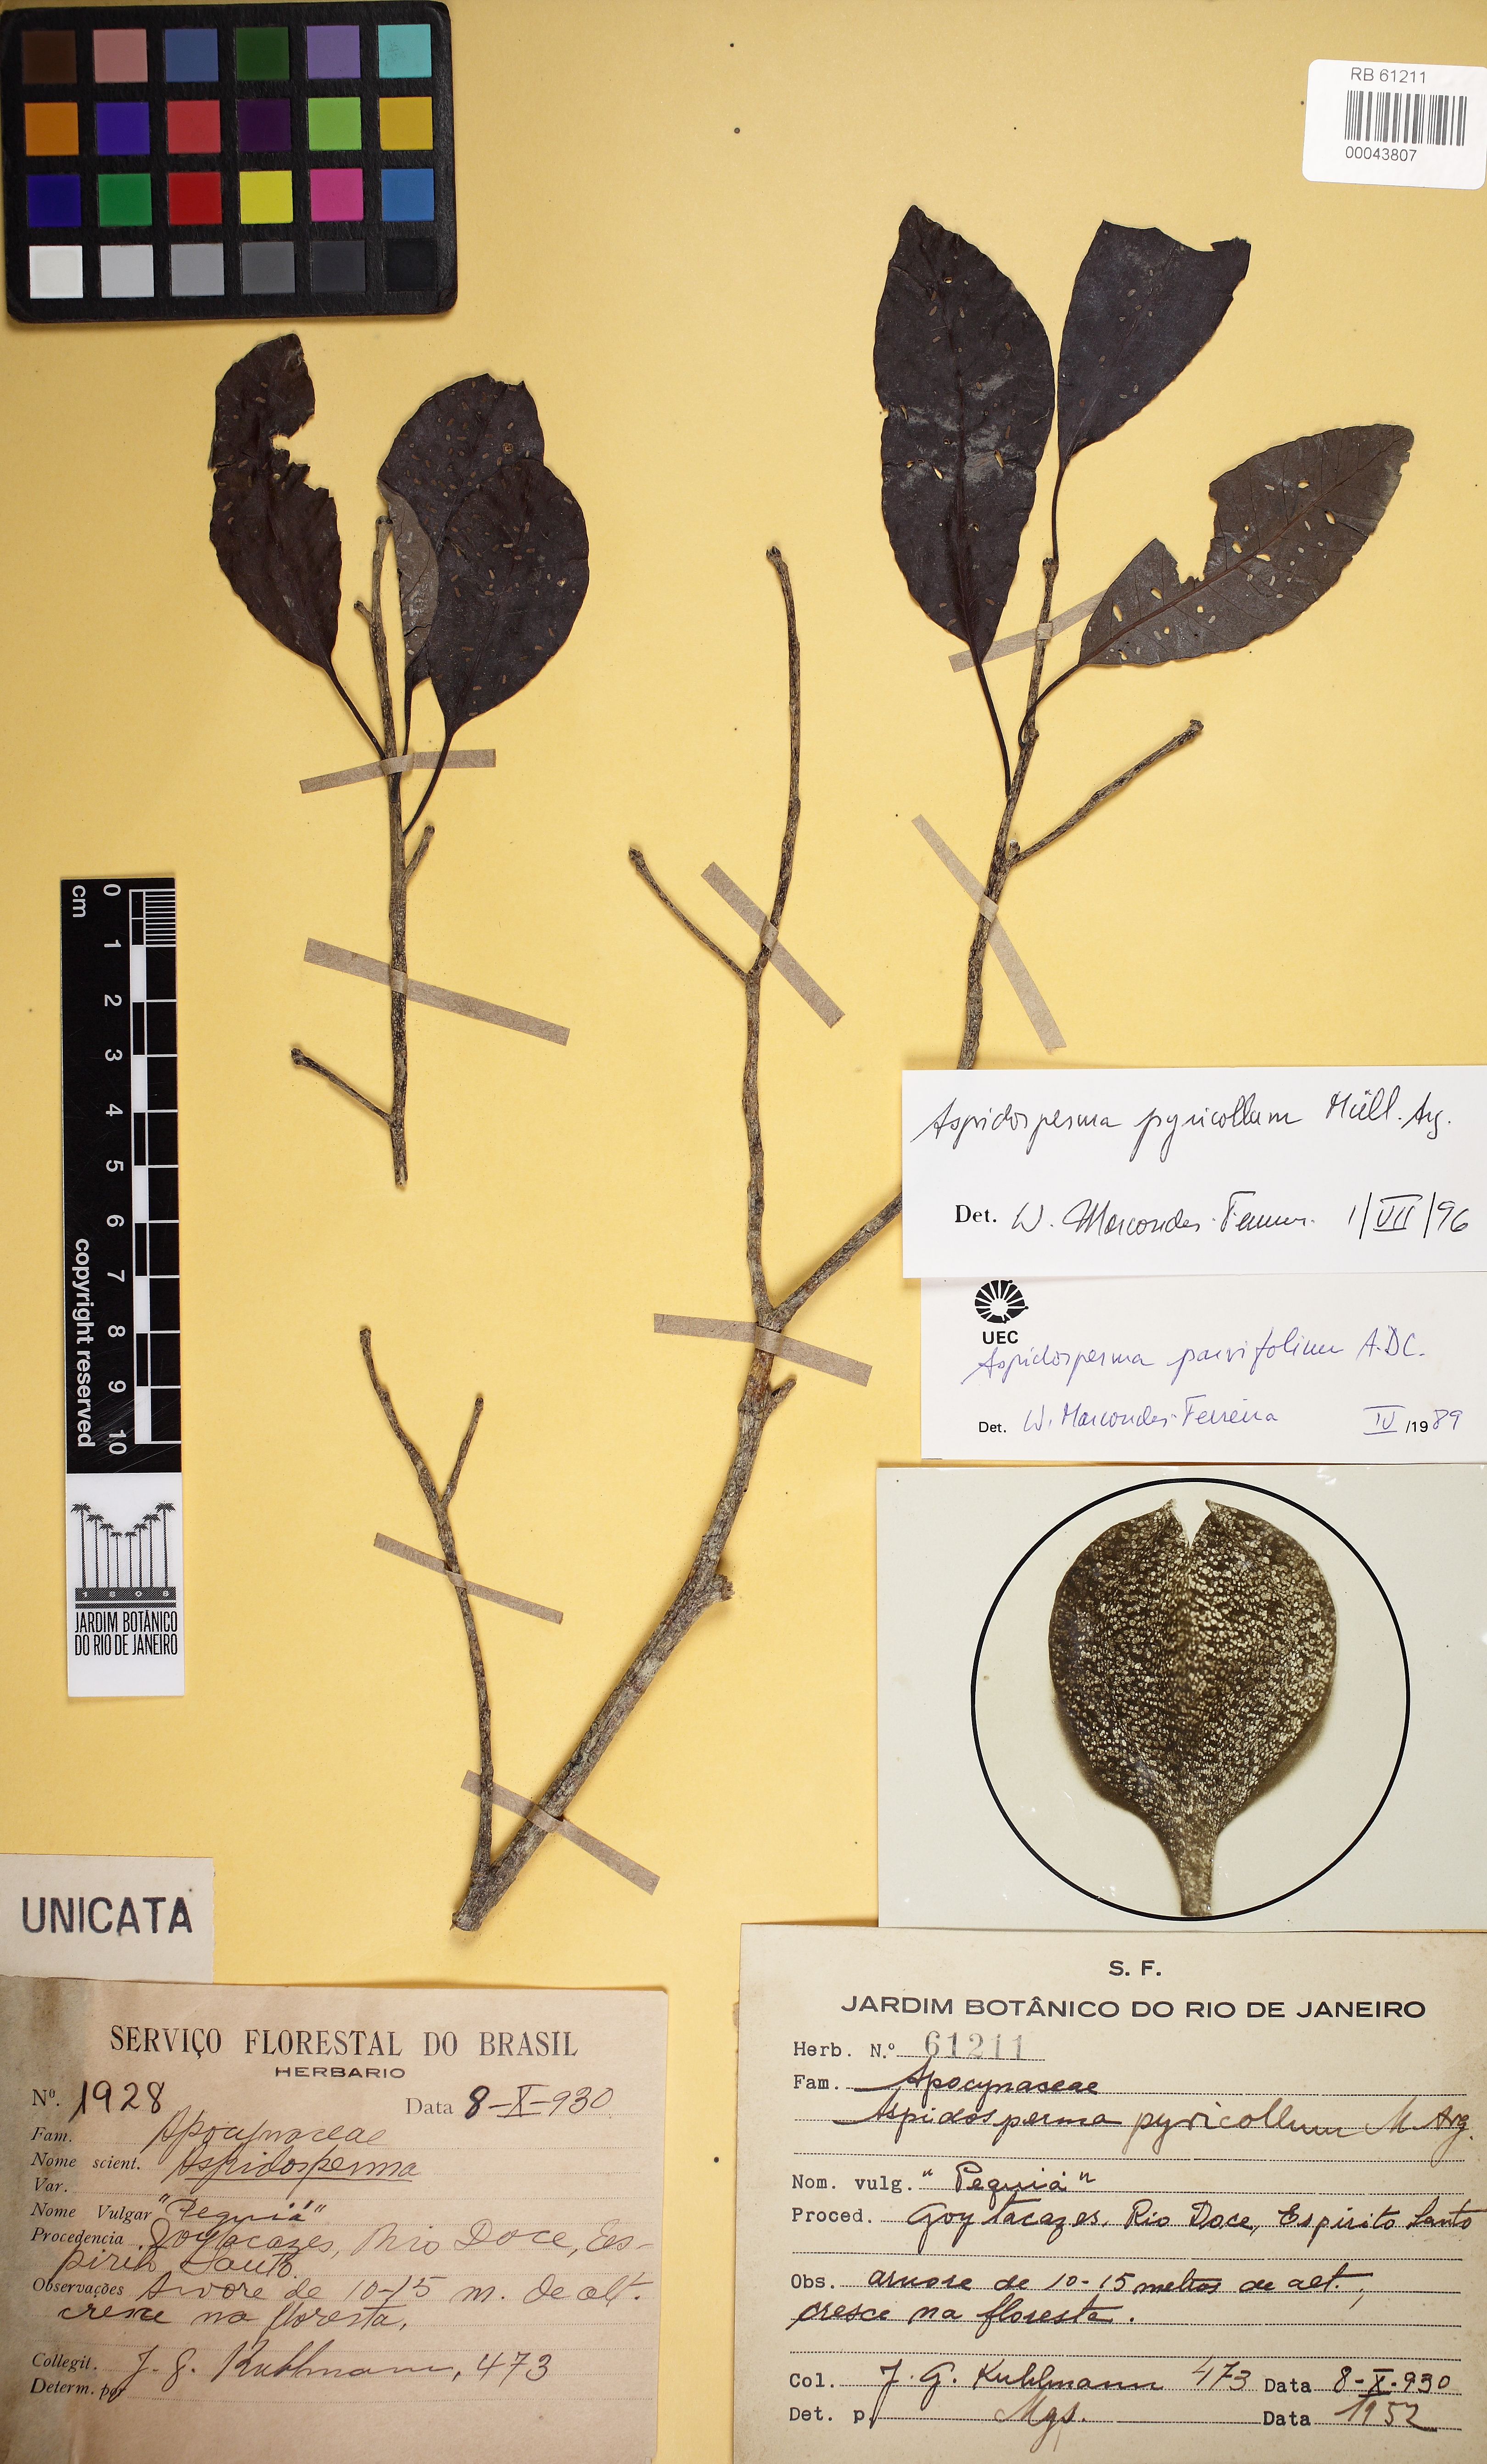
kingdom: Plantae
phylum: Tracheophyta
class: Magnoliopsida
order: Gentianales
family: Apocynaceae
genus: Aspidosperma
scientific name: Aspidosperma pyricollum
